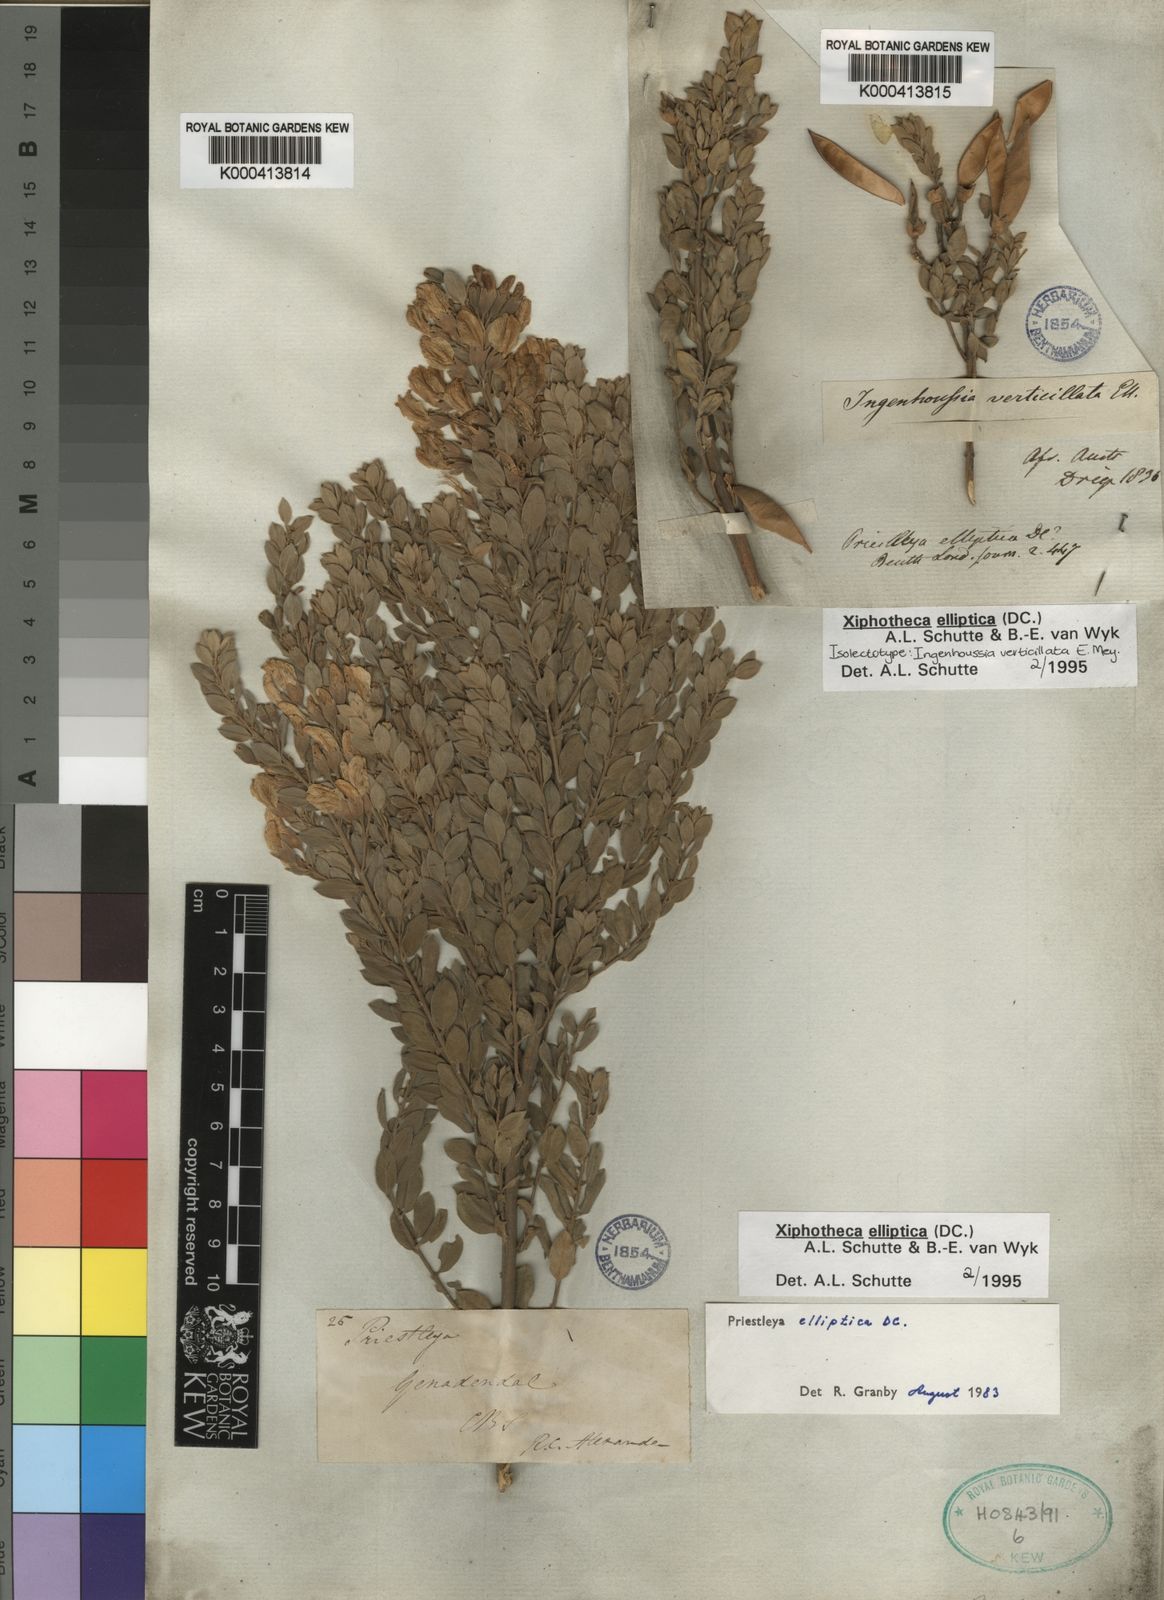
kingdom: Plantae
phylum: Tracheophyta
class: Magnoliopsida
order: Fabales
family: Fabaceae
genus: Xiphotheca
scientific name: Xiphotheca elliptica
